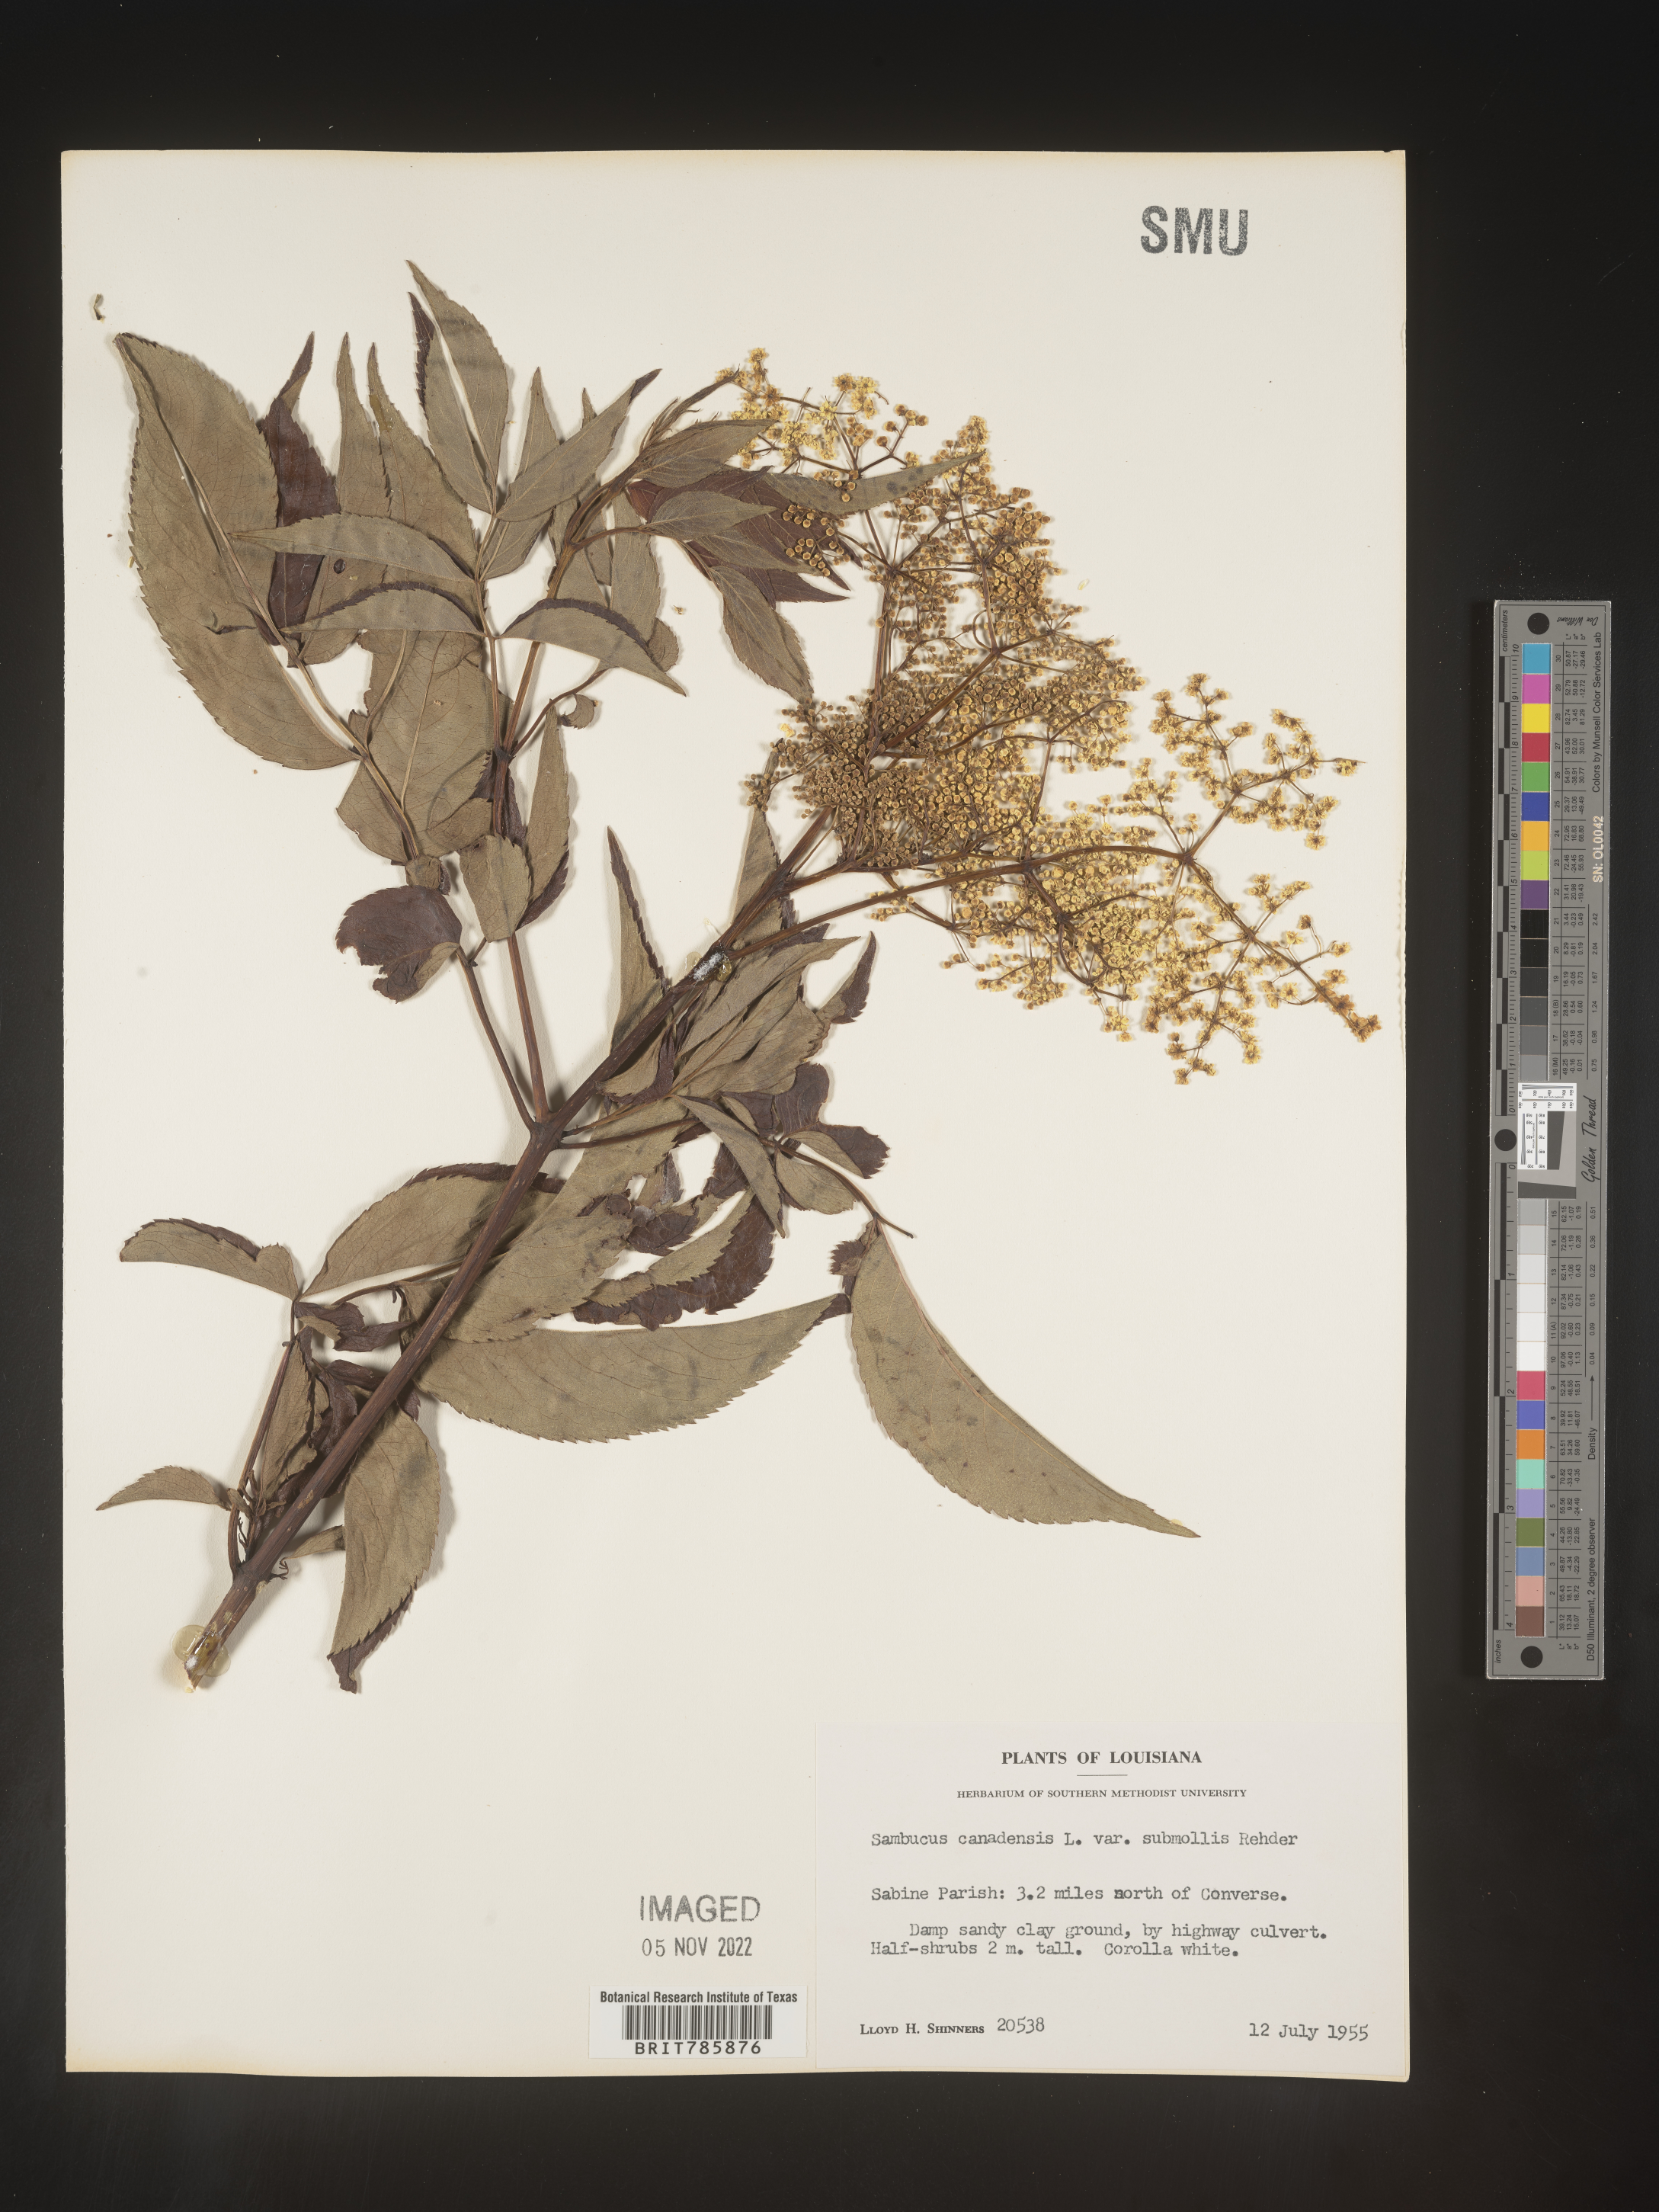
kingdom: Plantae
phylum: Tracheophyta
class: Magnoliopsida
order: Dipsacales
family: Viburnaceae
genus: Sambucus
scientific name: Sambucus nigra
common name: Elder
